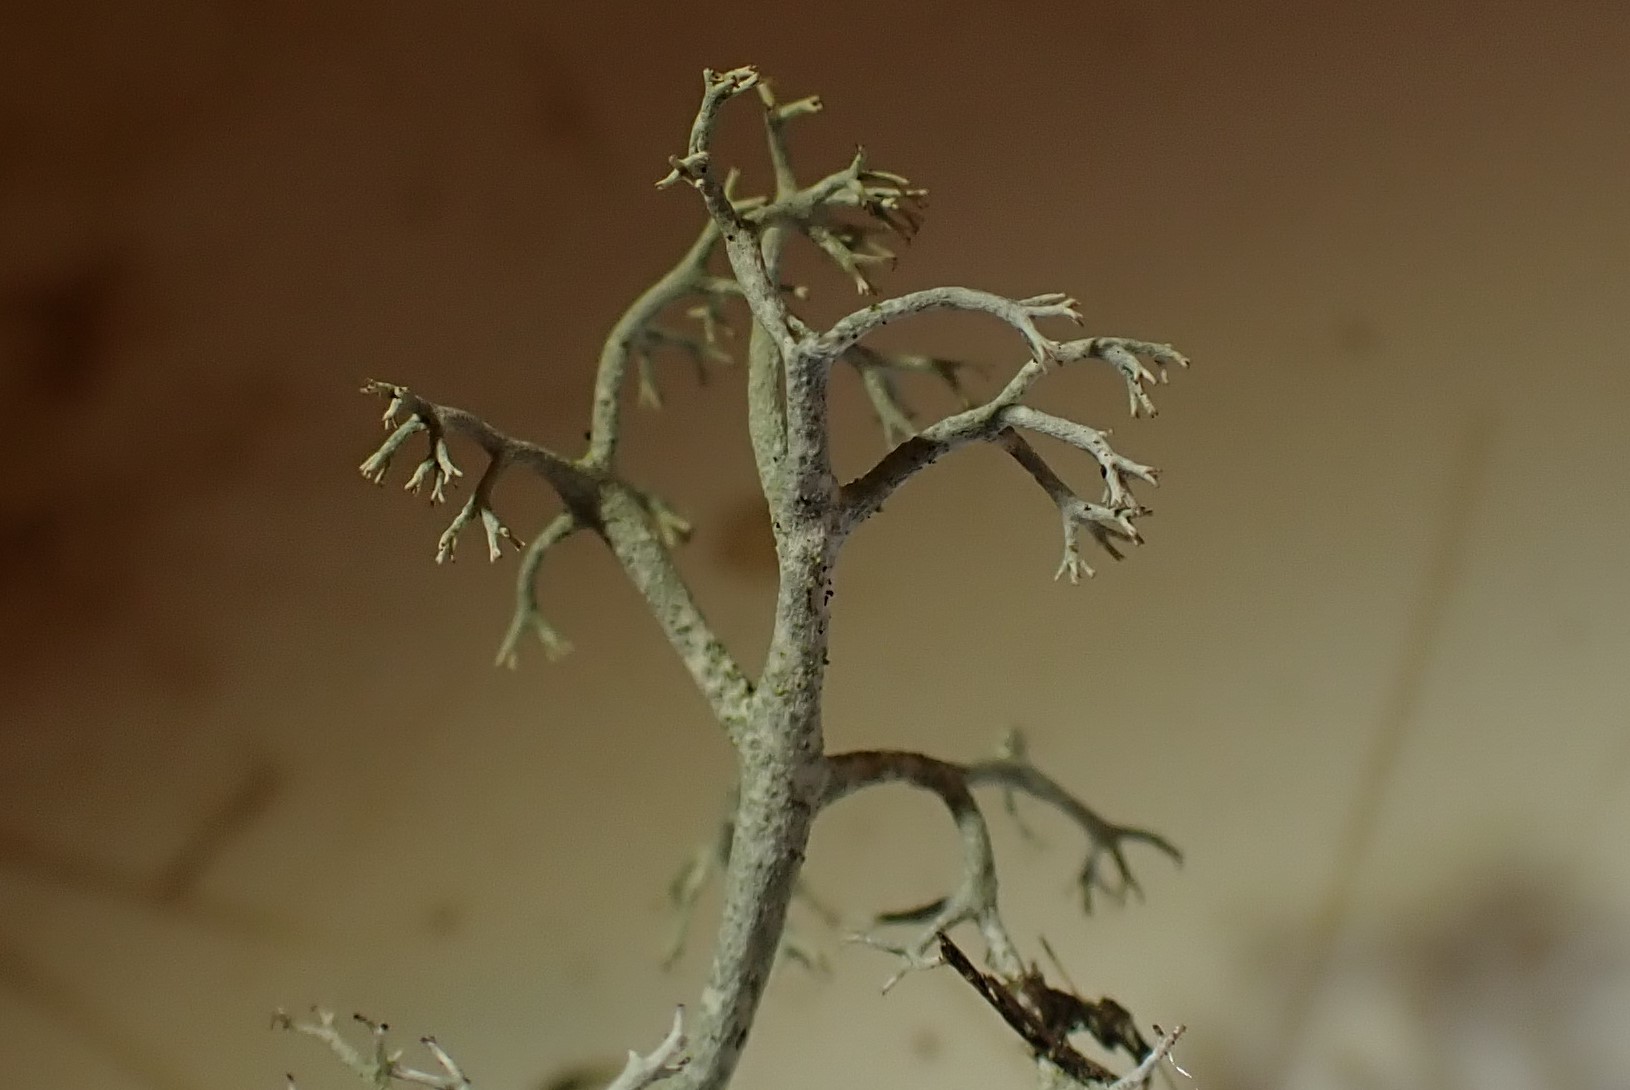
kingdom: Fungi
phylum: Ascomycota
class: Lecanoromycetes
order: Lecanorales
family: Cladoniaceae
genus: Cladonia
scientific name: Cladonia portentosa
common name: hede-rensdyrlav
